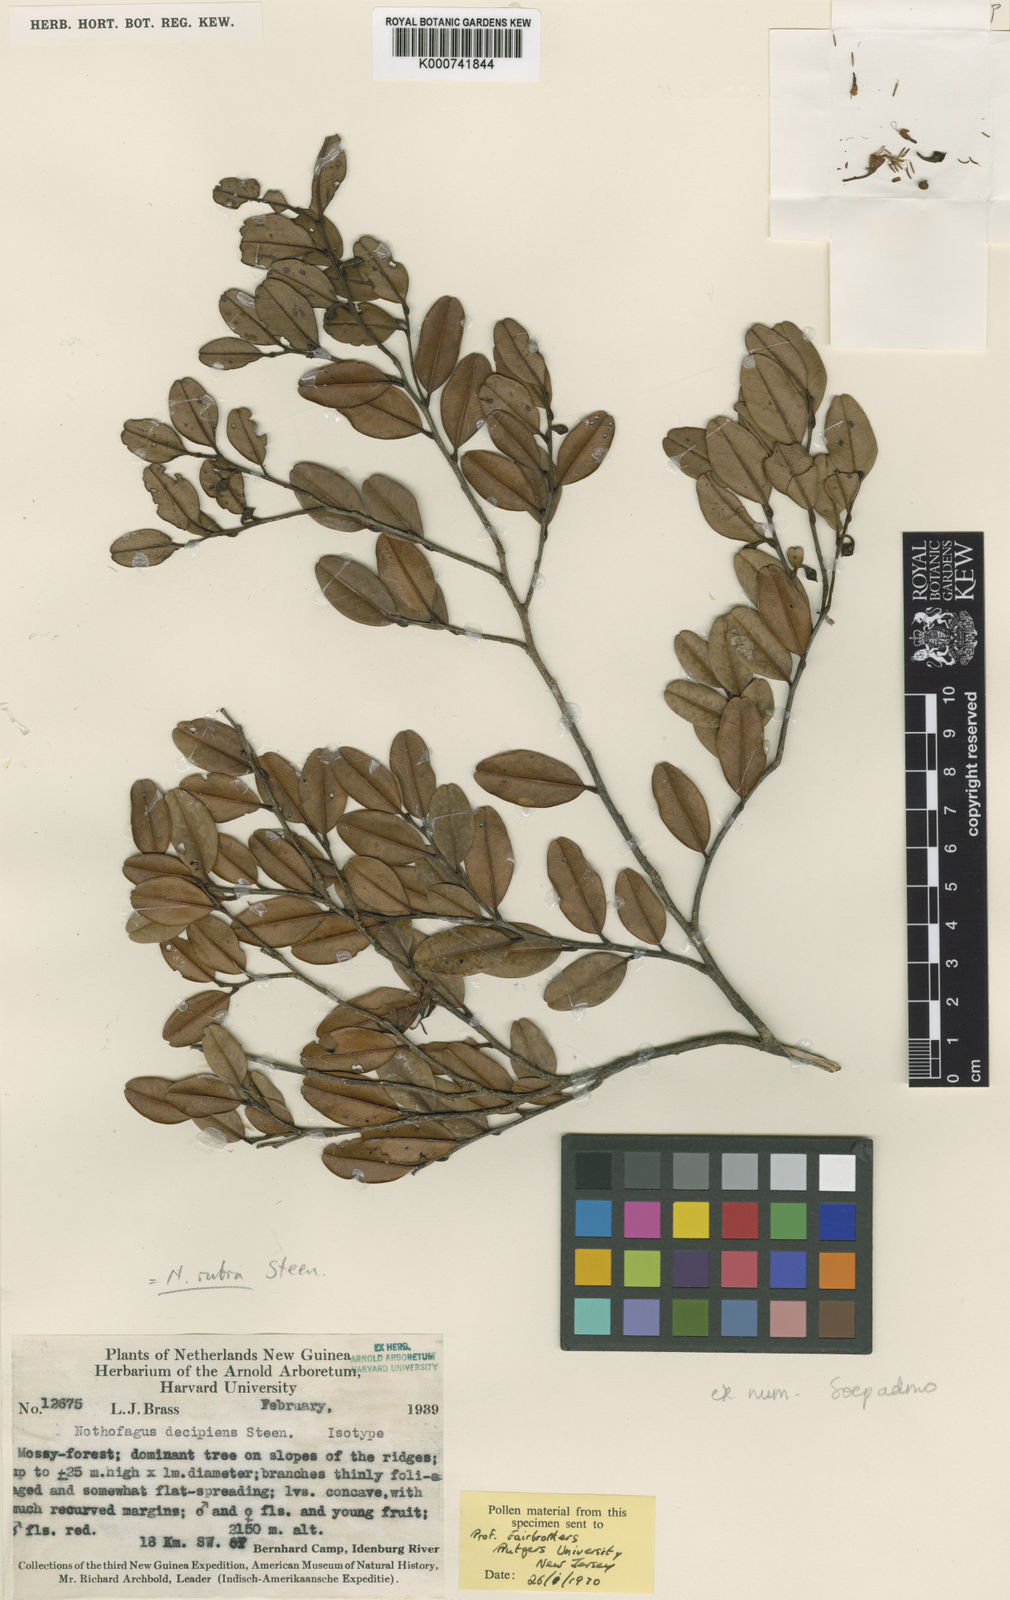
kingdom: Plantae
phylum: Tracheophyta
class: Magnoliopsida
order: Fagales
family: Nothofagaceae
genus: Nothofagus
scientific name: Nothofagus rubra
